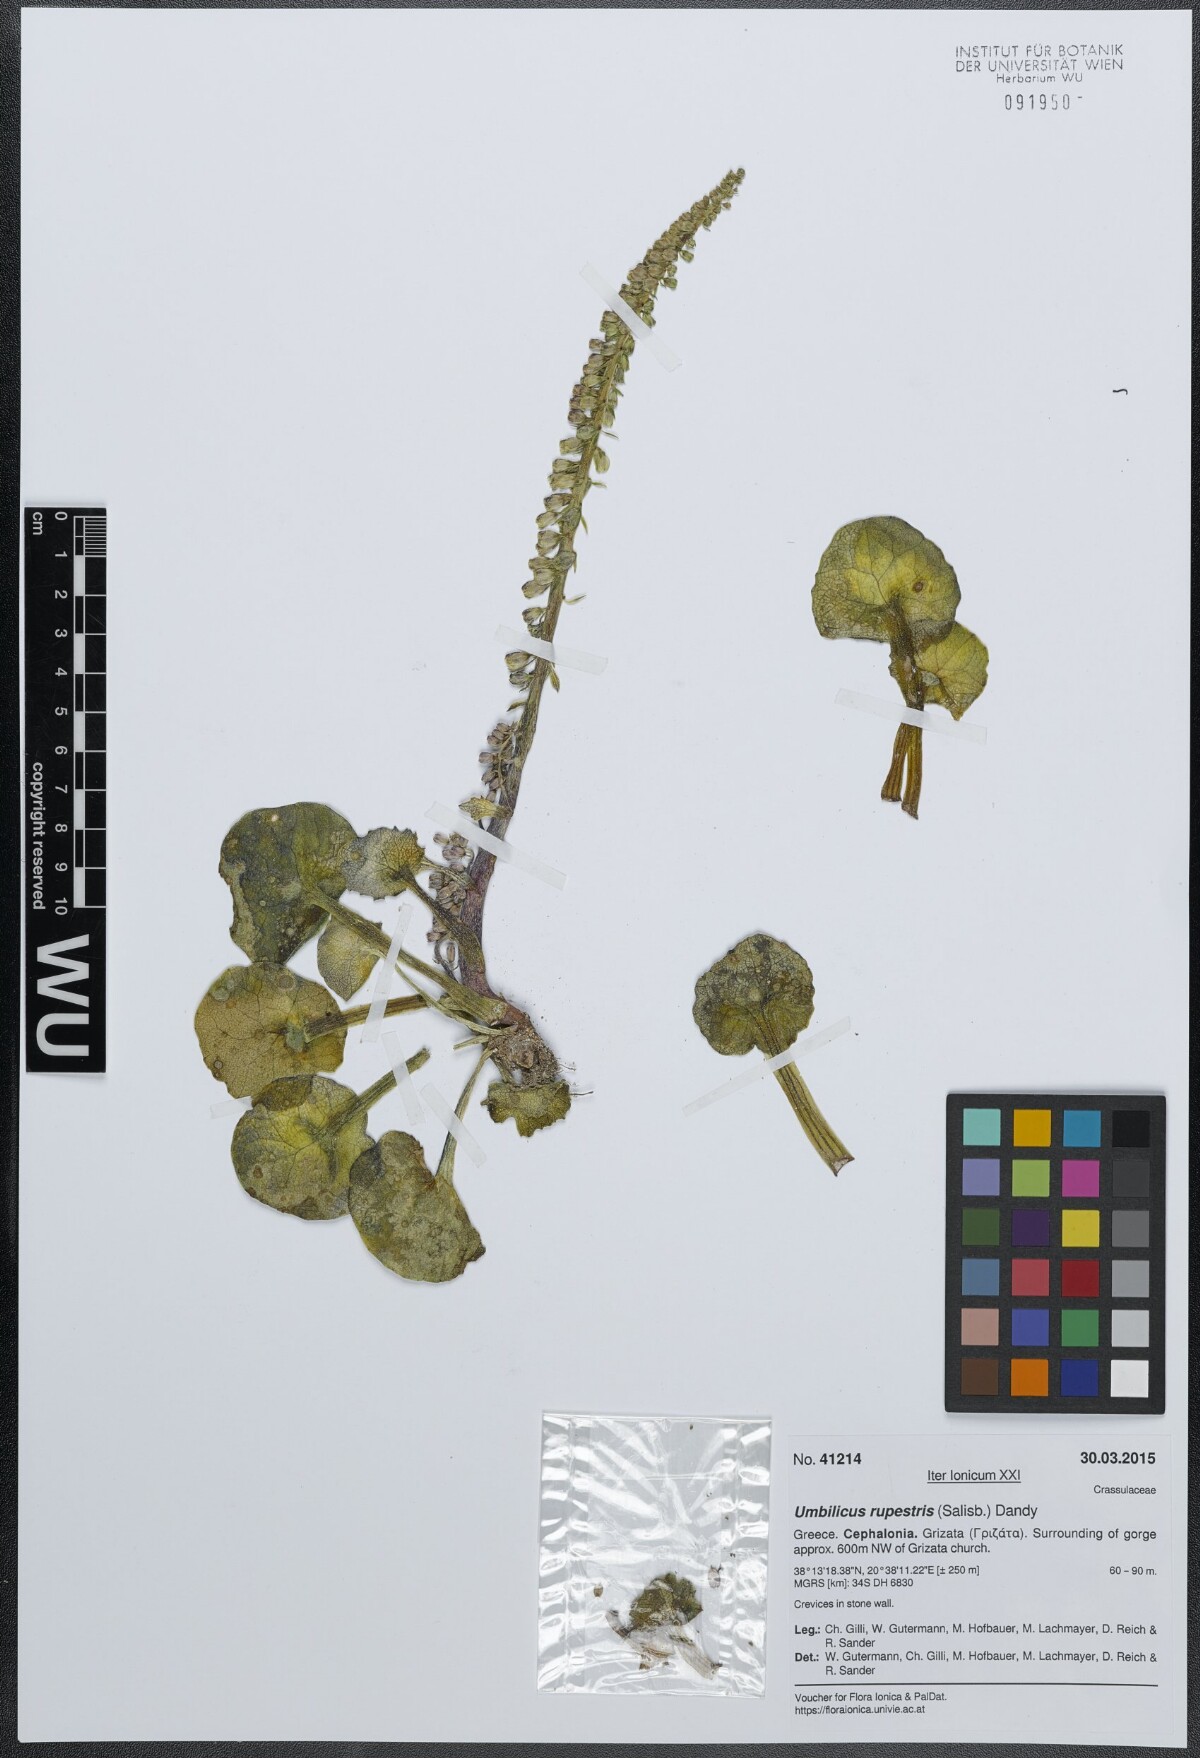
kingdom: Plantae
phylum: Tracheophyta
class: Magnoliopsida
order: Saxifragales
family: Crassulaceae
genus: Umbilicus
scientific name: Umbilicus rupestris
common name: Navelwort
